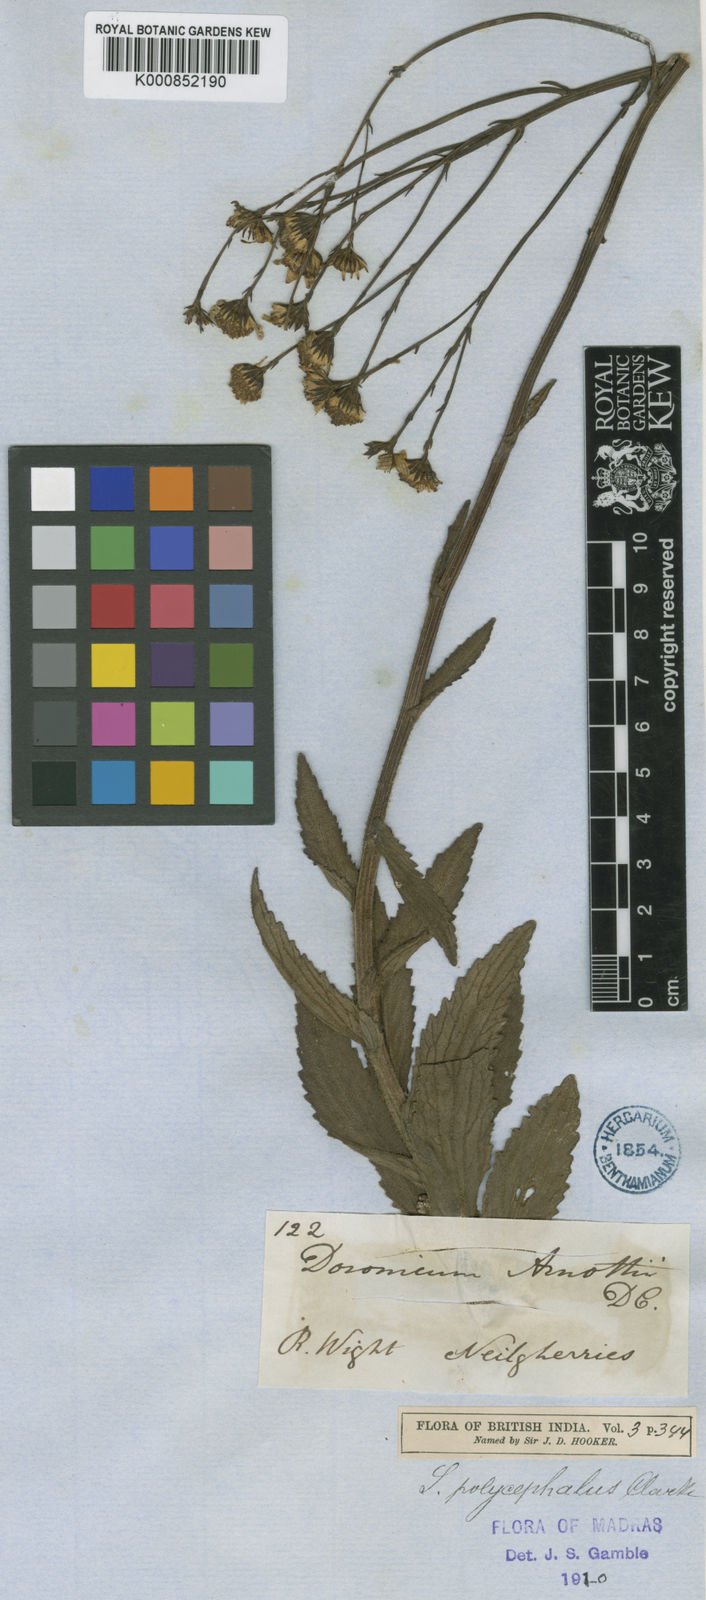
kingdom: Plantae
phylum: Tracheophyta
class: Magnoliopsida
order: Asterales
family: Asteraceae
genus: Senecio
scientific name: Senecio multiceps
